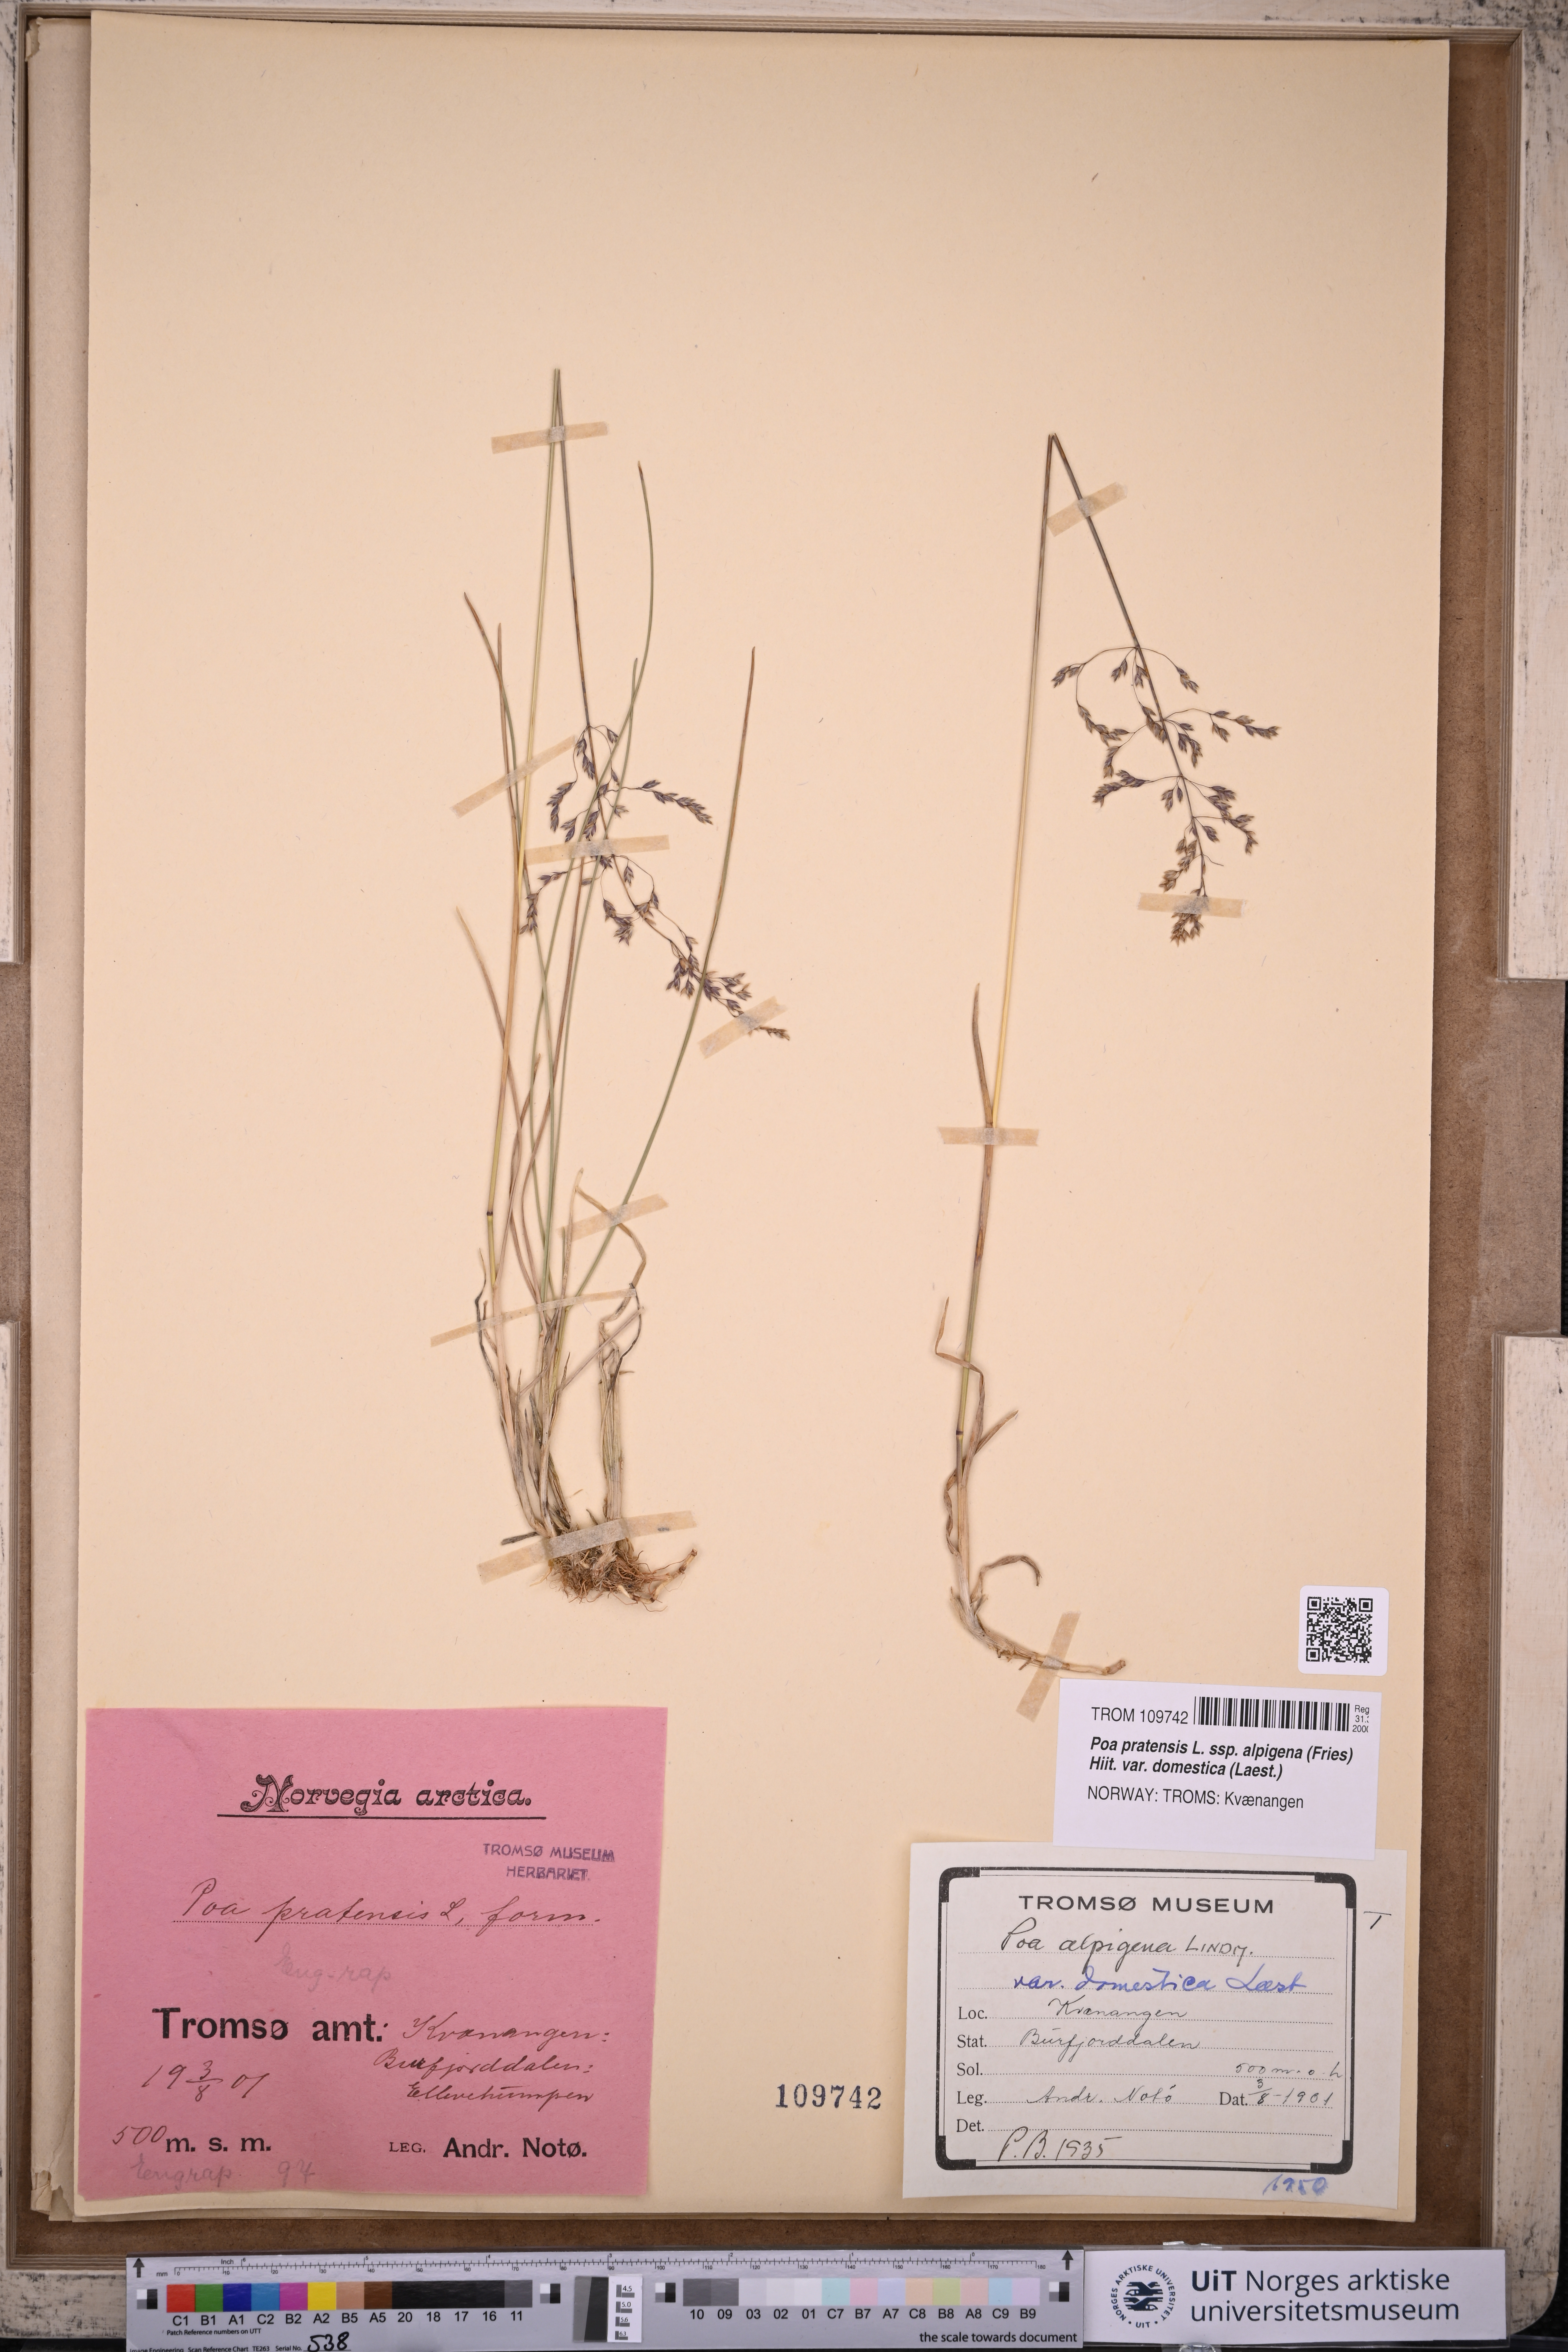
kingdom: Plantae
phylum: Tracheophyta
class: Liliopsida
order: Poales
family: Poaceae
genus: Poa
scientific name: Poa pratensis
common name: Kentucky bluegrass
